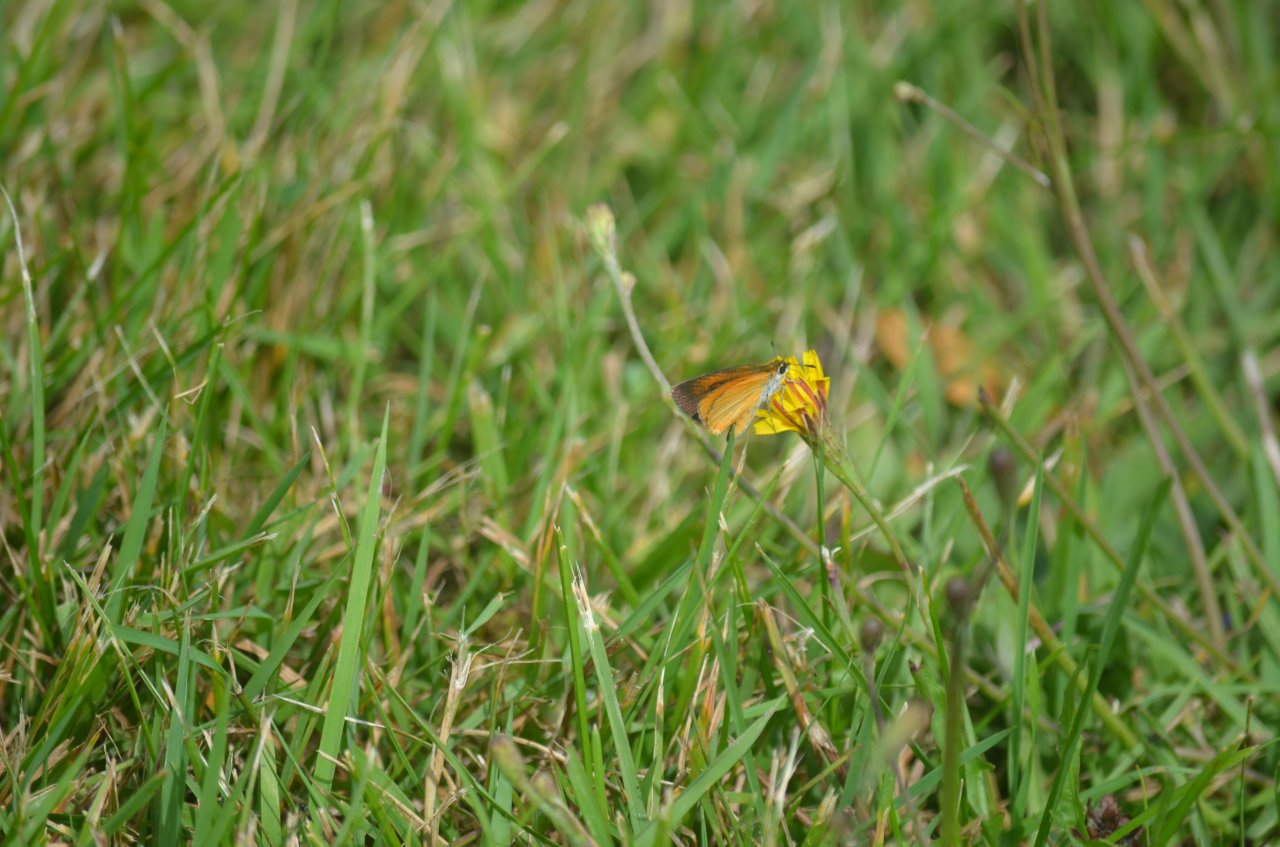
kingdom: Animalia
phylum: Arthropoda
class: Insecta
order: Lepidoptera
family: Hesperiidae
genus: Ancyloxypha
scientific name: Ancyloxypha numitor
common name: Least Skipper
